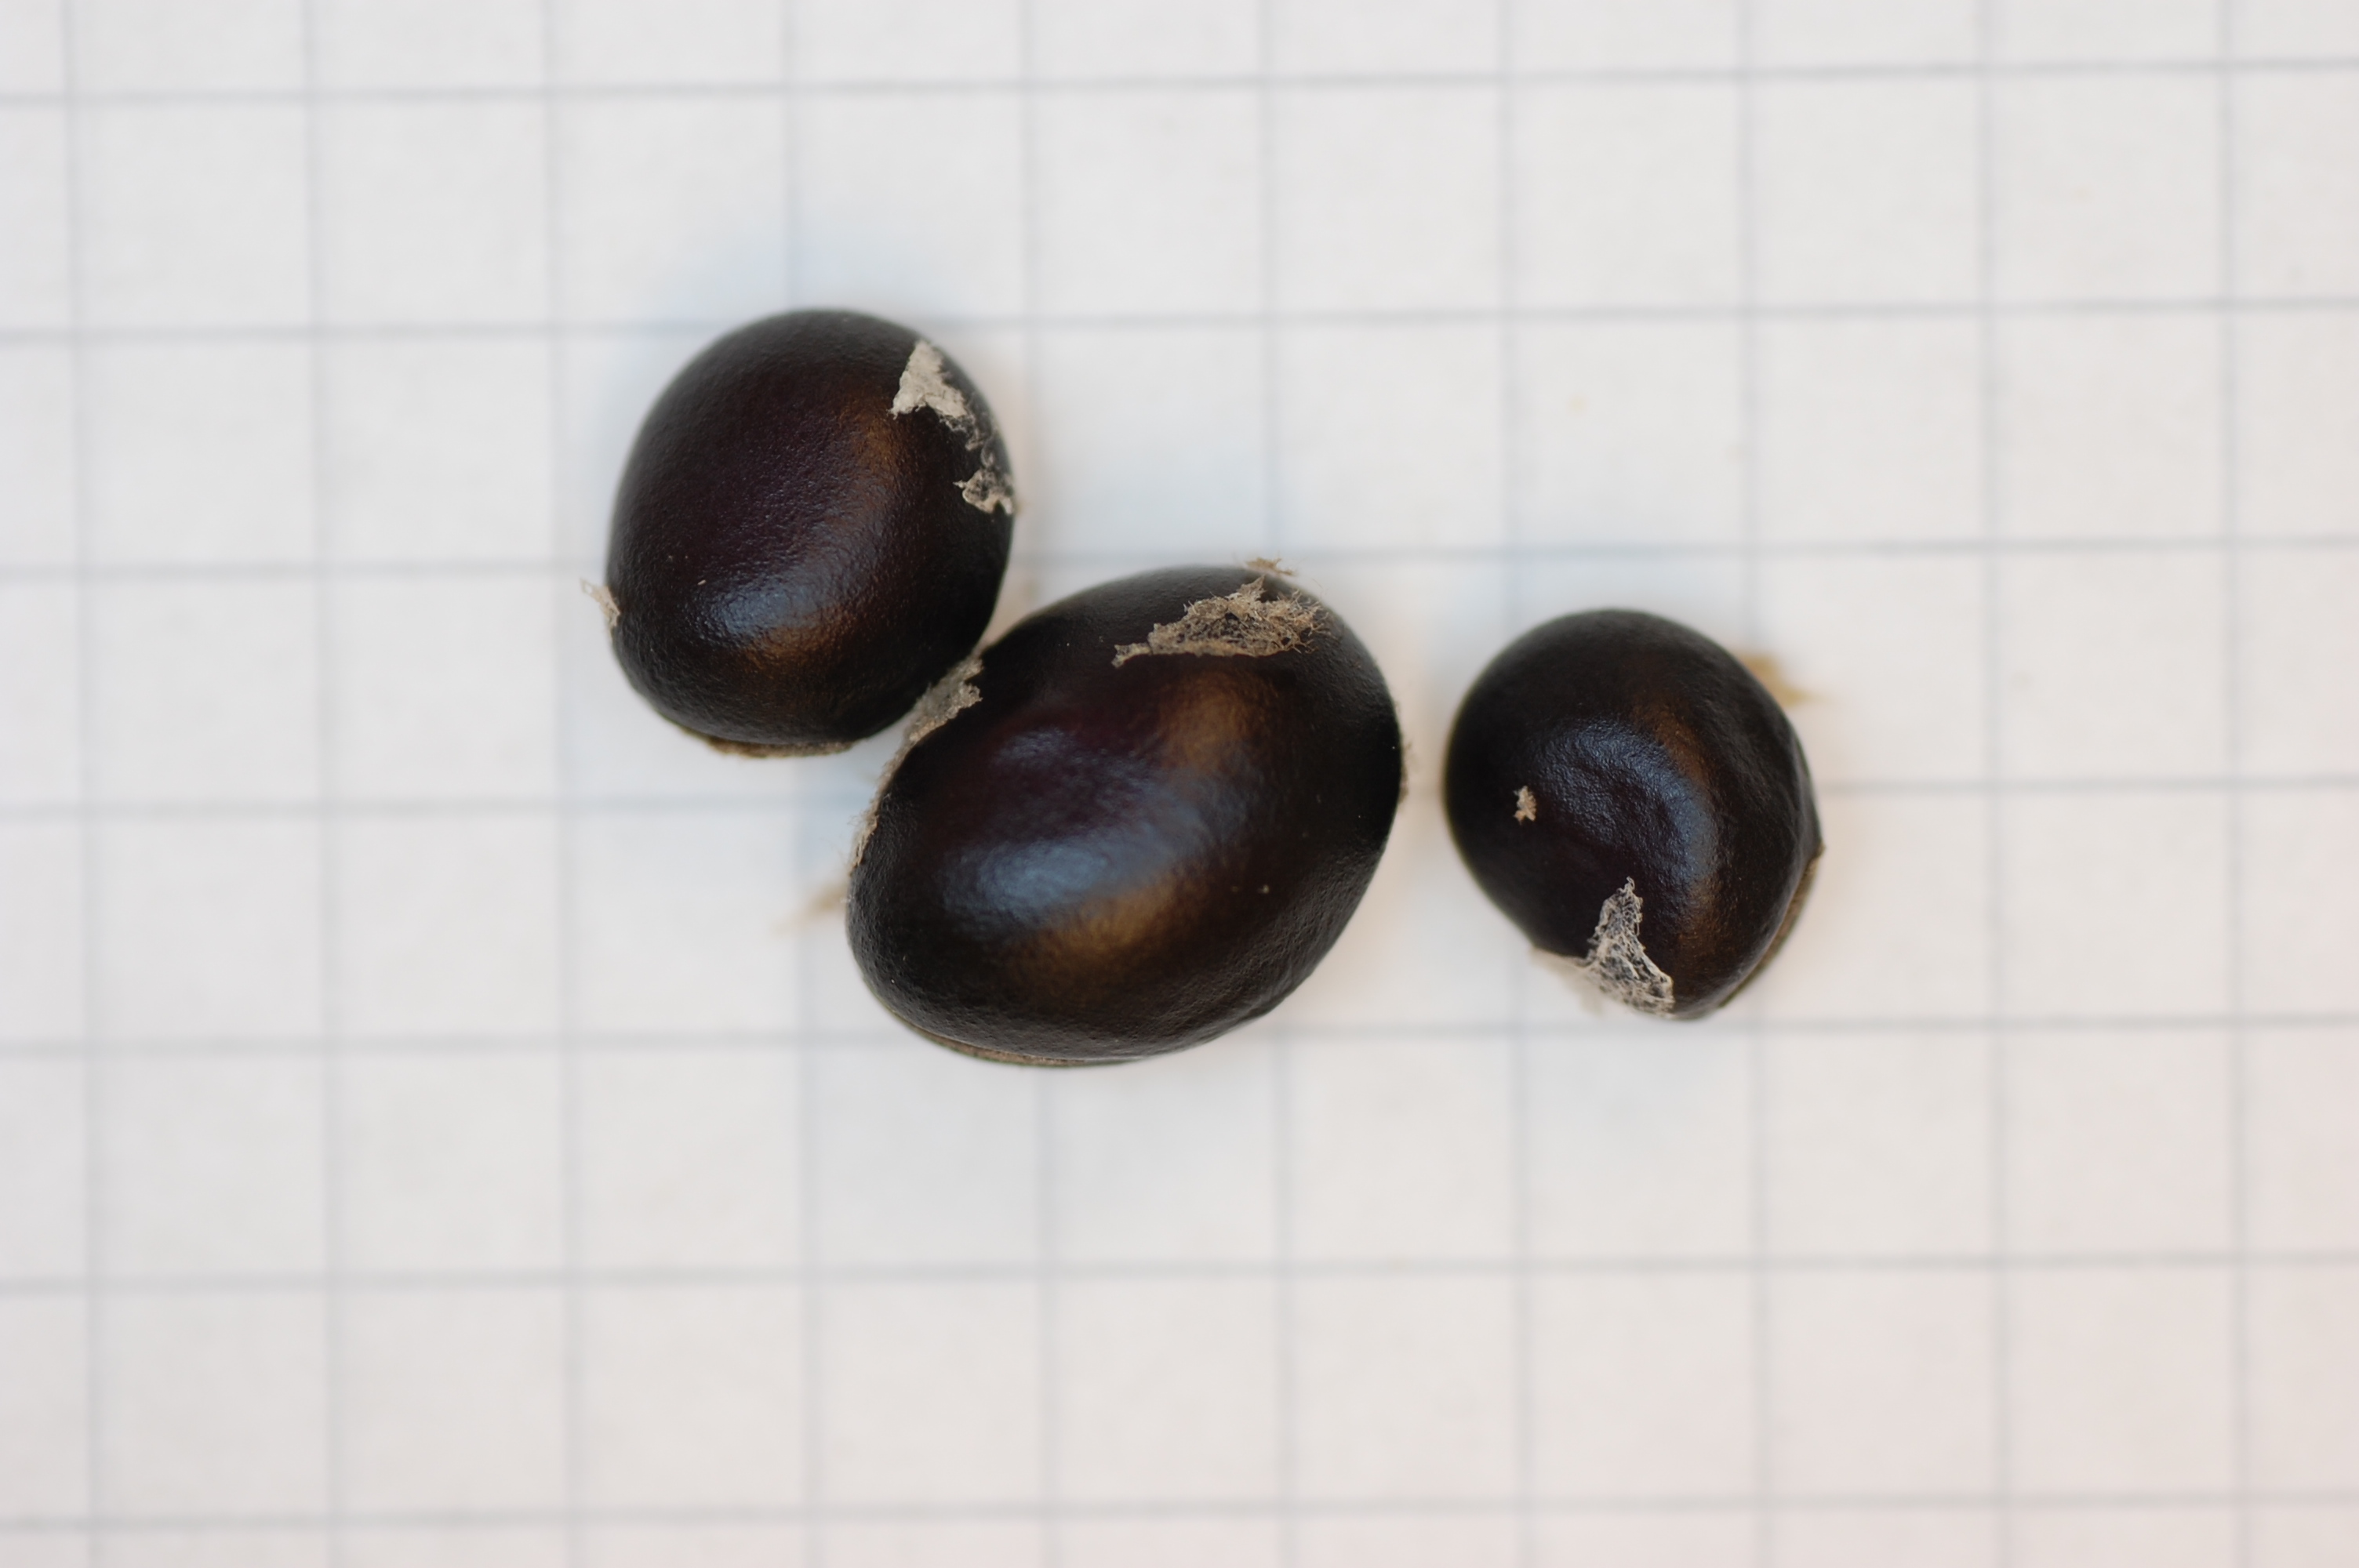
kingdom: Plantae
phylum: Tracheophyta
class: Magnoliopsida
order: Fabales
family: Fabaceae
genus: Vicia
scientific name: Vicia faba
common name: Broad bean
